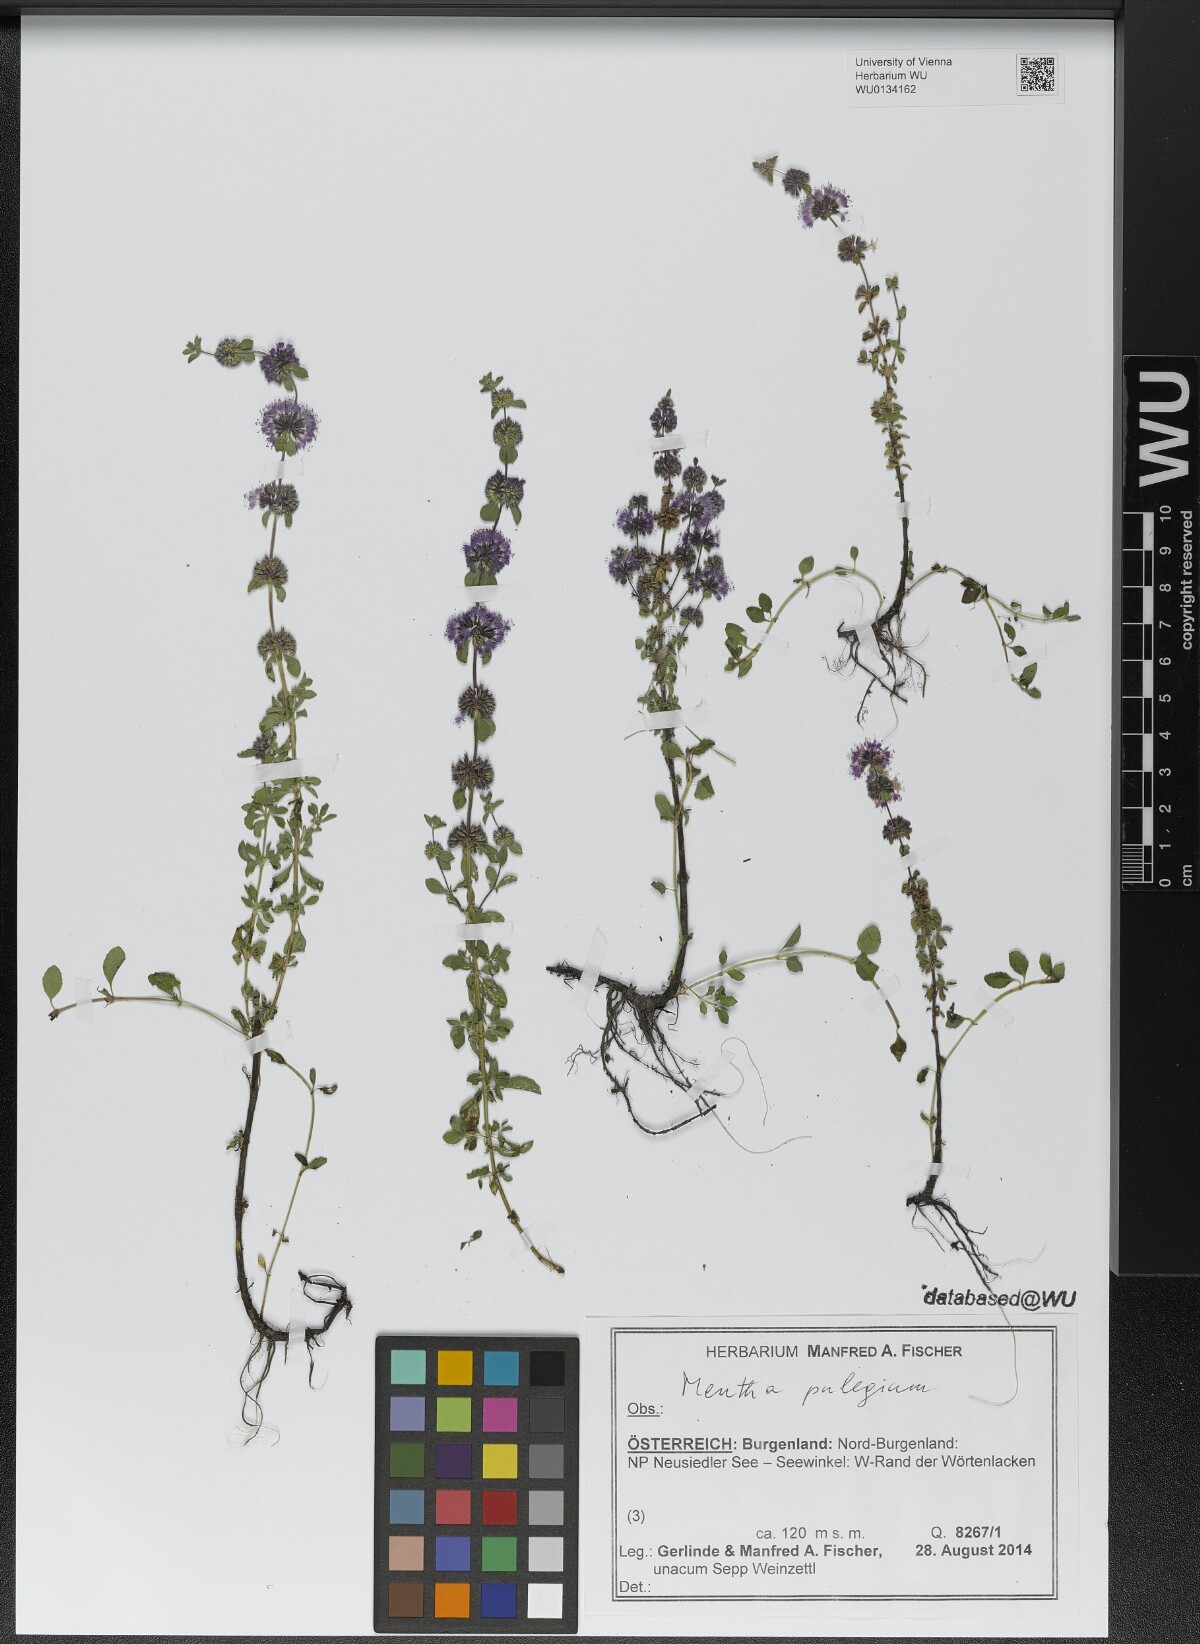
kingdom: Plantae
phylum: Tracheophyta
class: Magnoliopsida
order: Lamiales
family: Lamiaceae
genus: Mentha
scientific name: Mentha pulegium
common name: Pennyroyal
